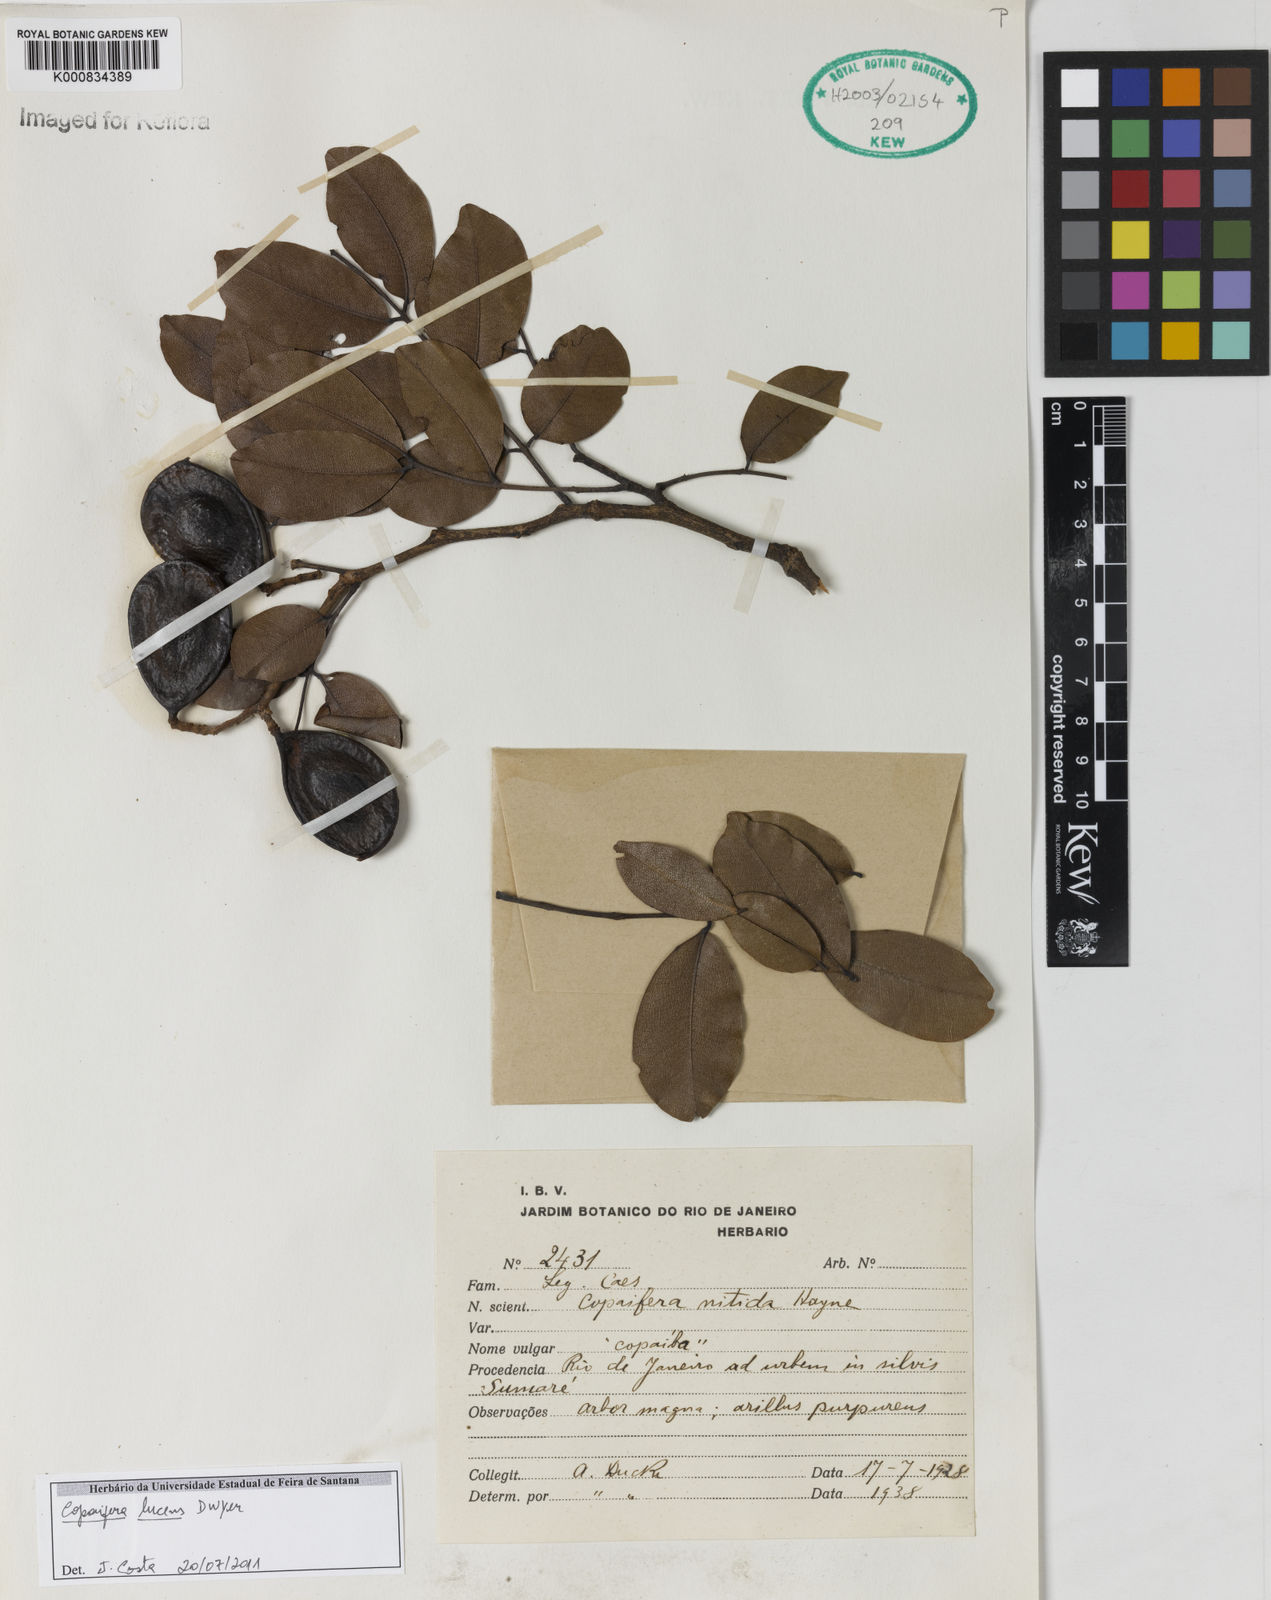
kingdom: Plantae
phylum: Tracheophyta
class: Magnoliopsida
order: Fabales
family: Fabaceae
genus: Copaifera
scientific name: Copaifera lucens
